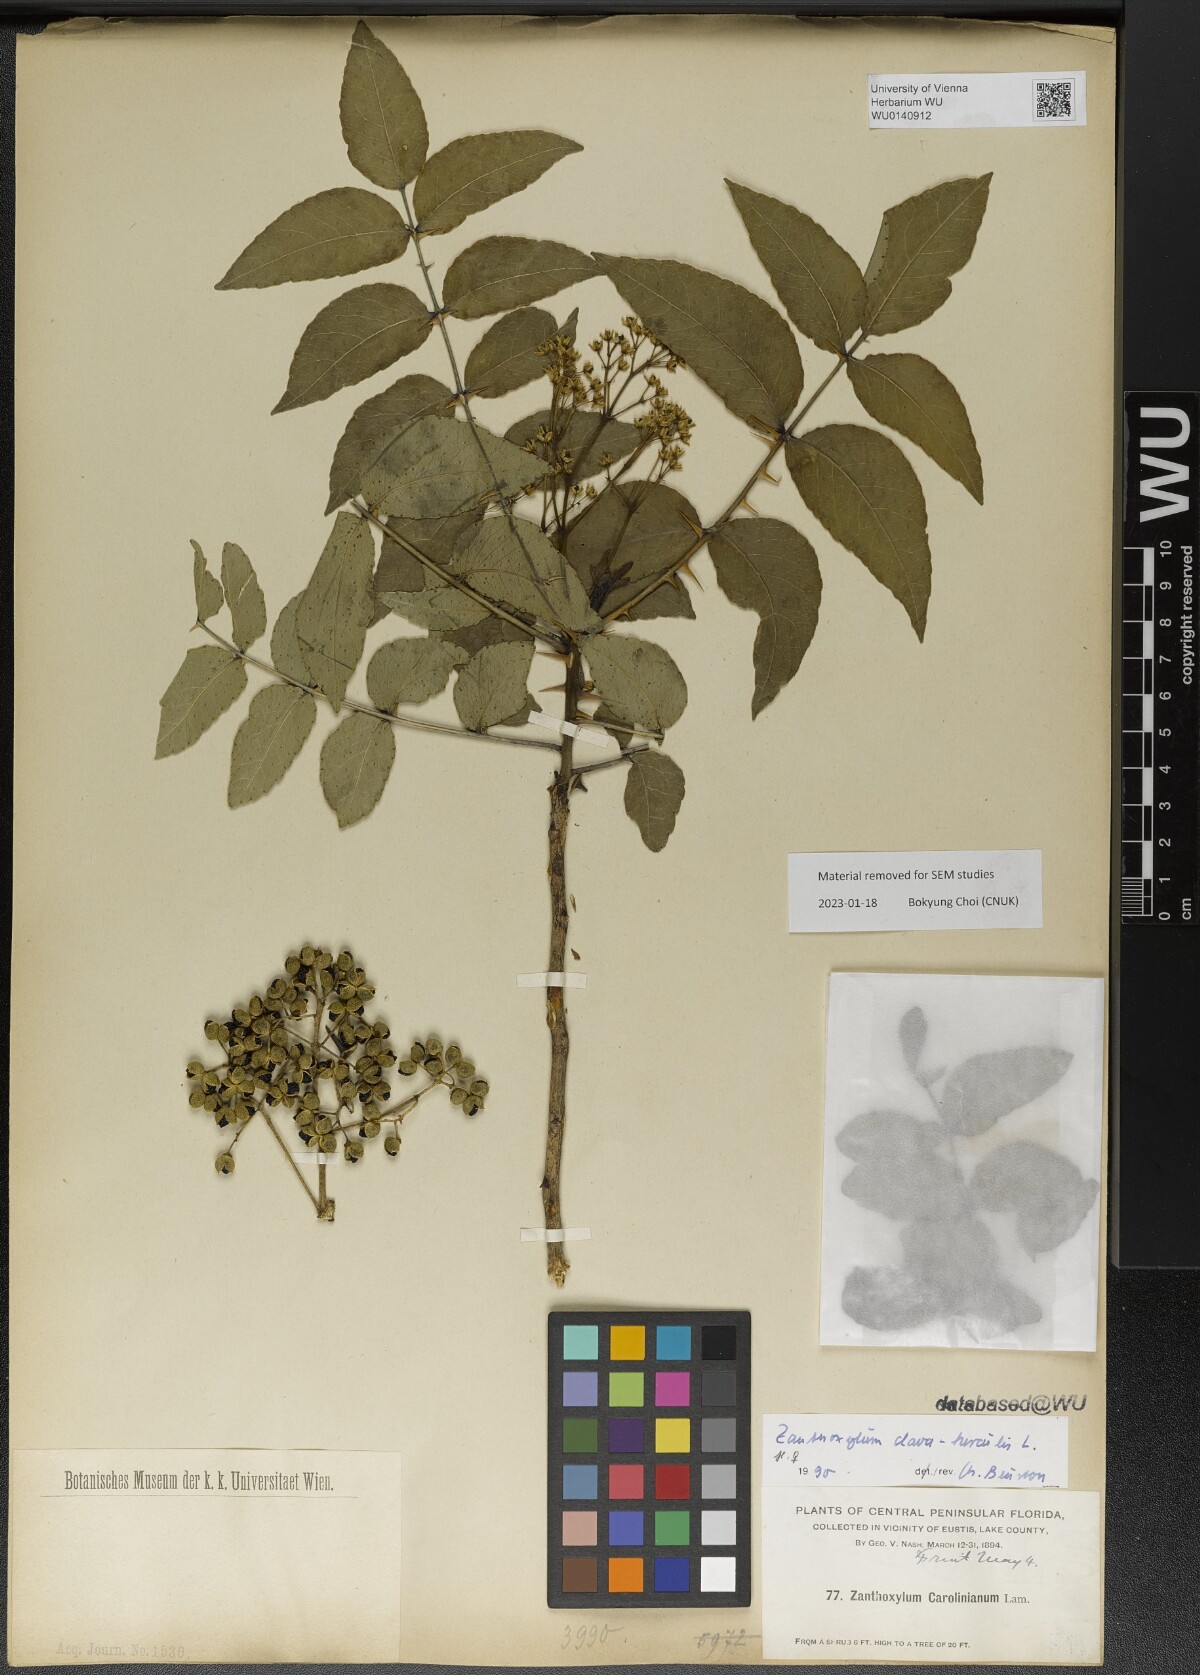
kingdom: Plantae
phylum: Tracheophyta
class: Magnoliopsida
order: Sapindales
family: Rutaceae
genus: Zanthoxylum
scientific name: Zanthoxylum clava-herculis
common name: Hercules'-club
